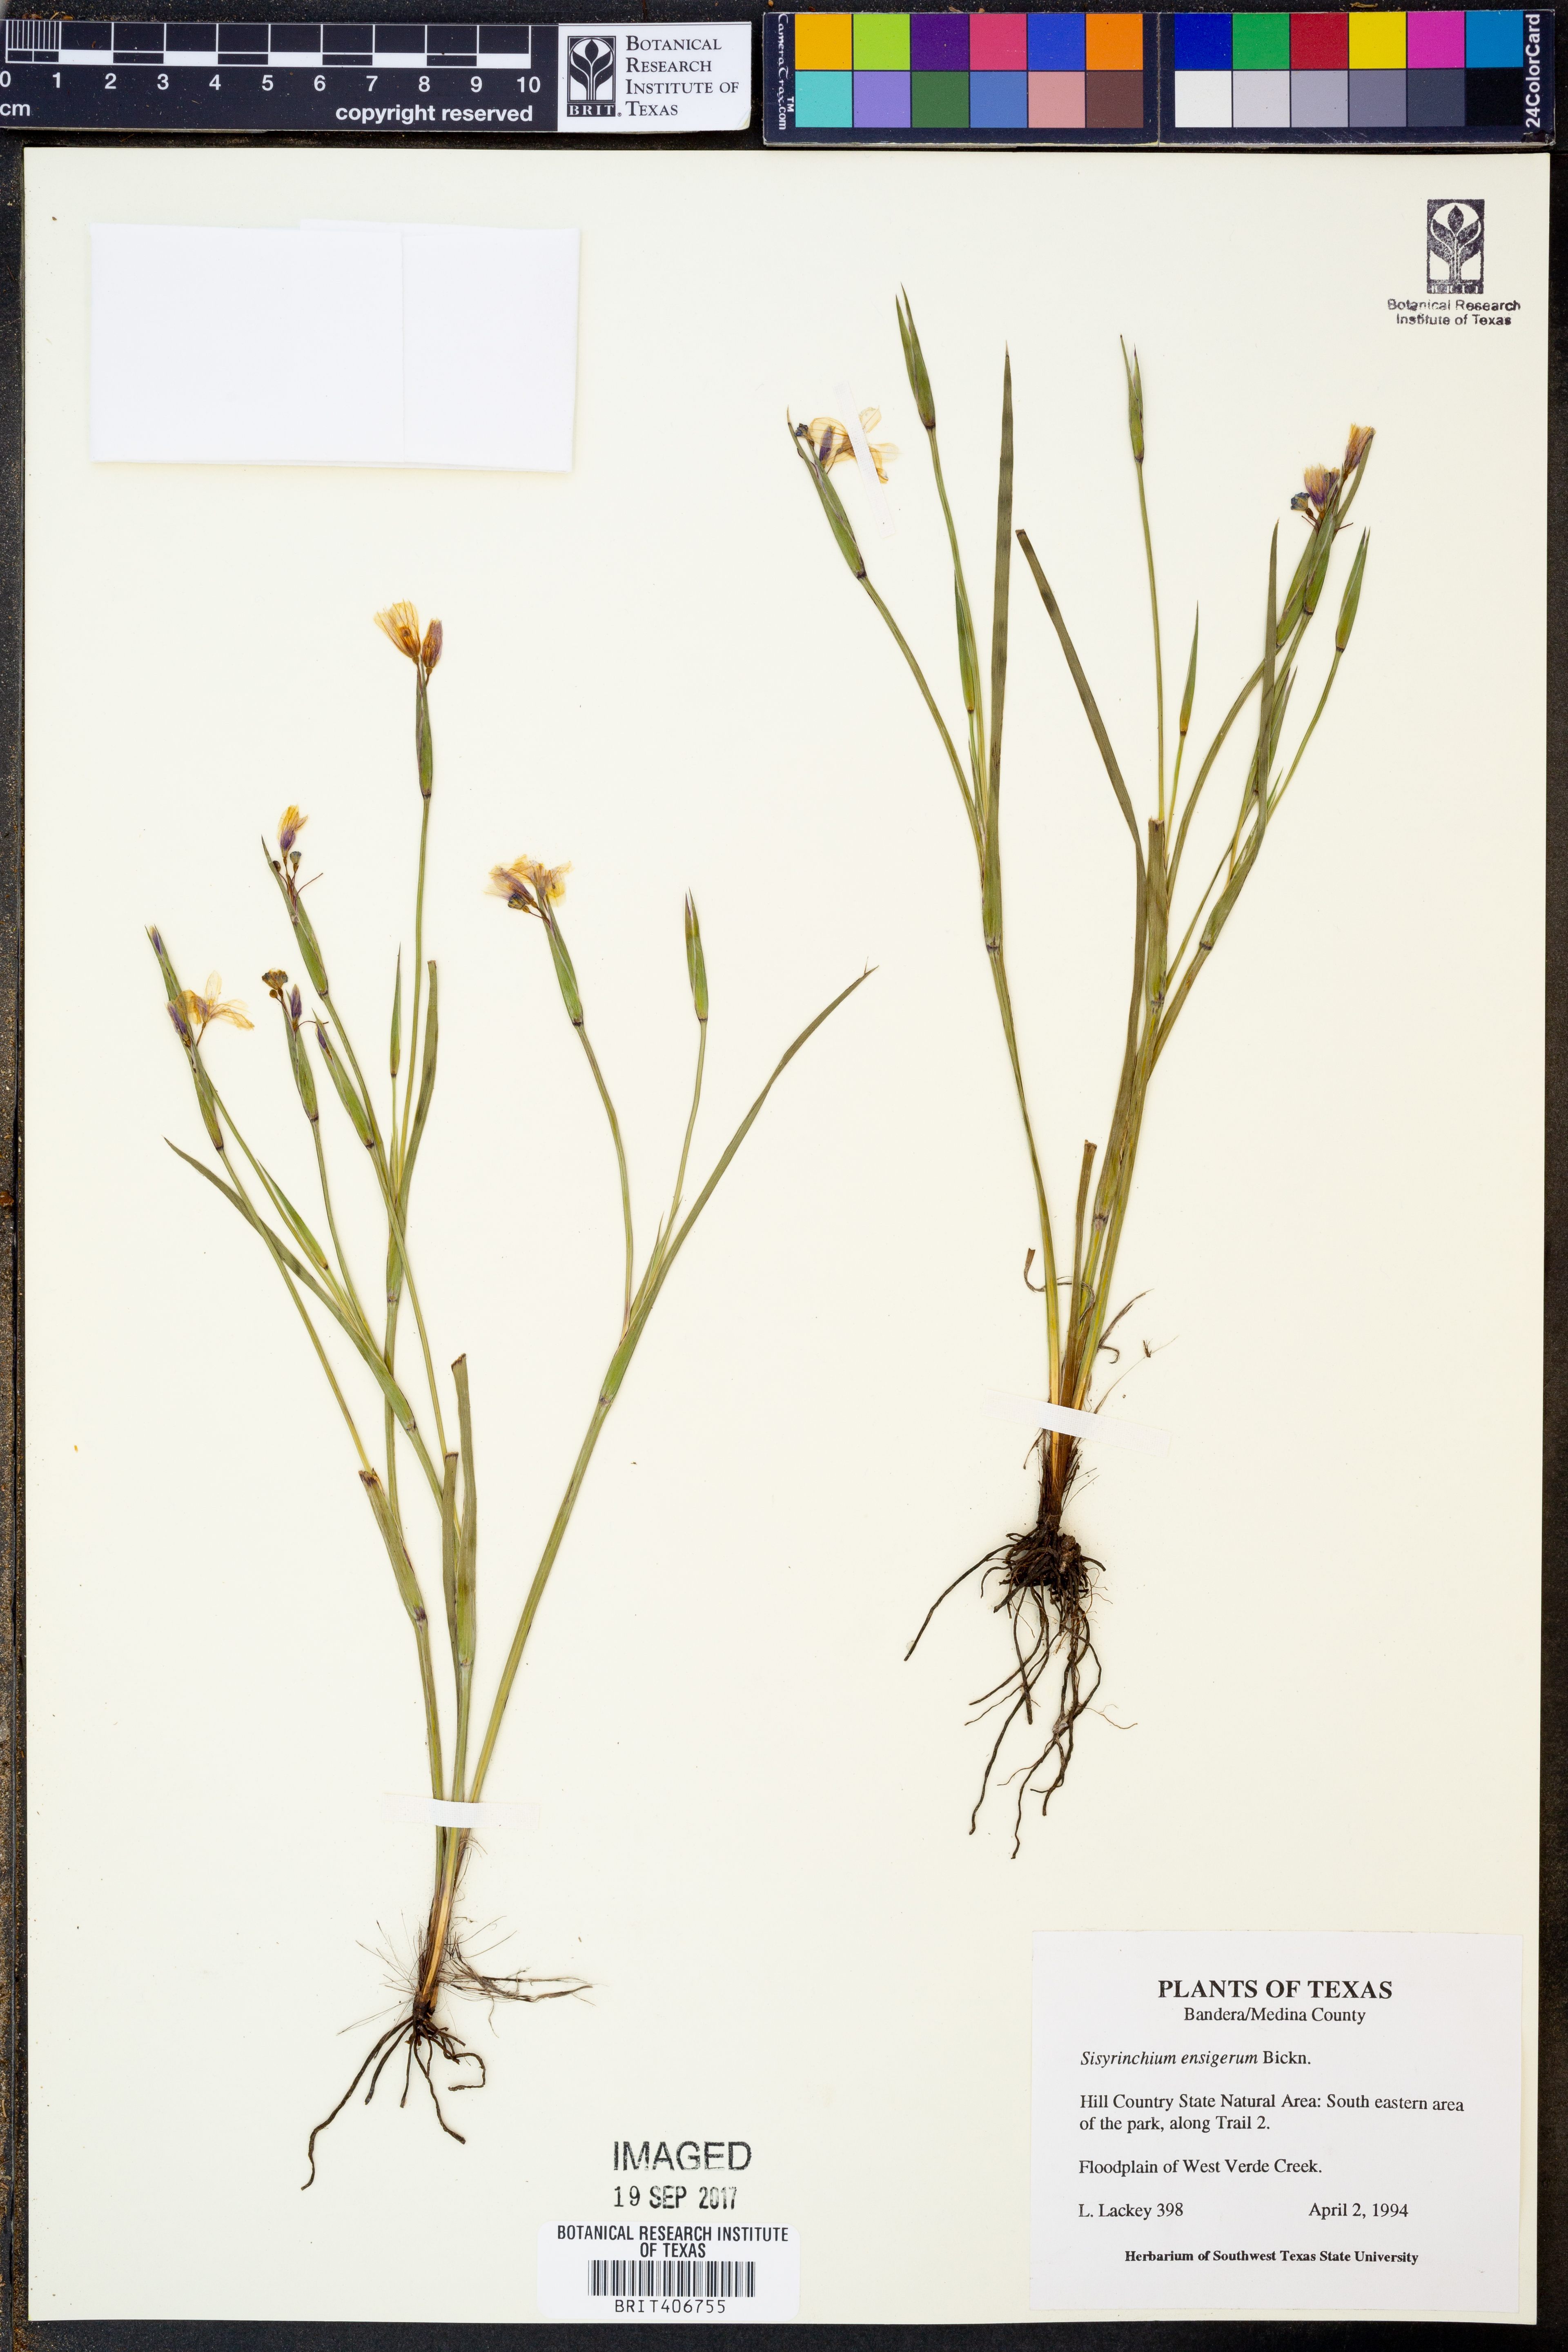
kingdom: Plantae
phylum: Tracheophyta
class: Liliopsida
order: Asparagales
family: Iridaceae
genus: Sisyrinchium
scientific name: Sisyrinchium ensigerum
